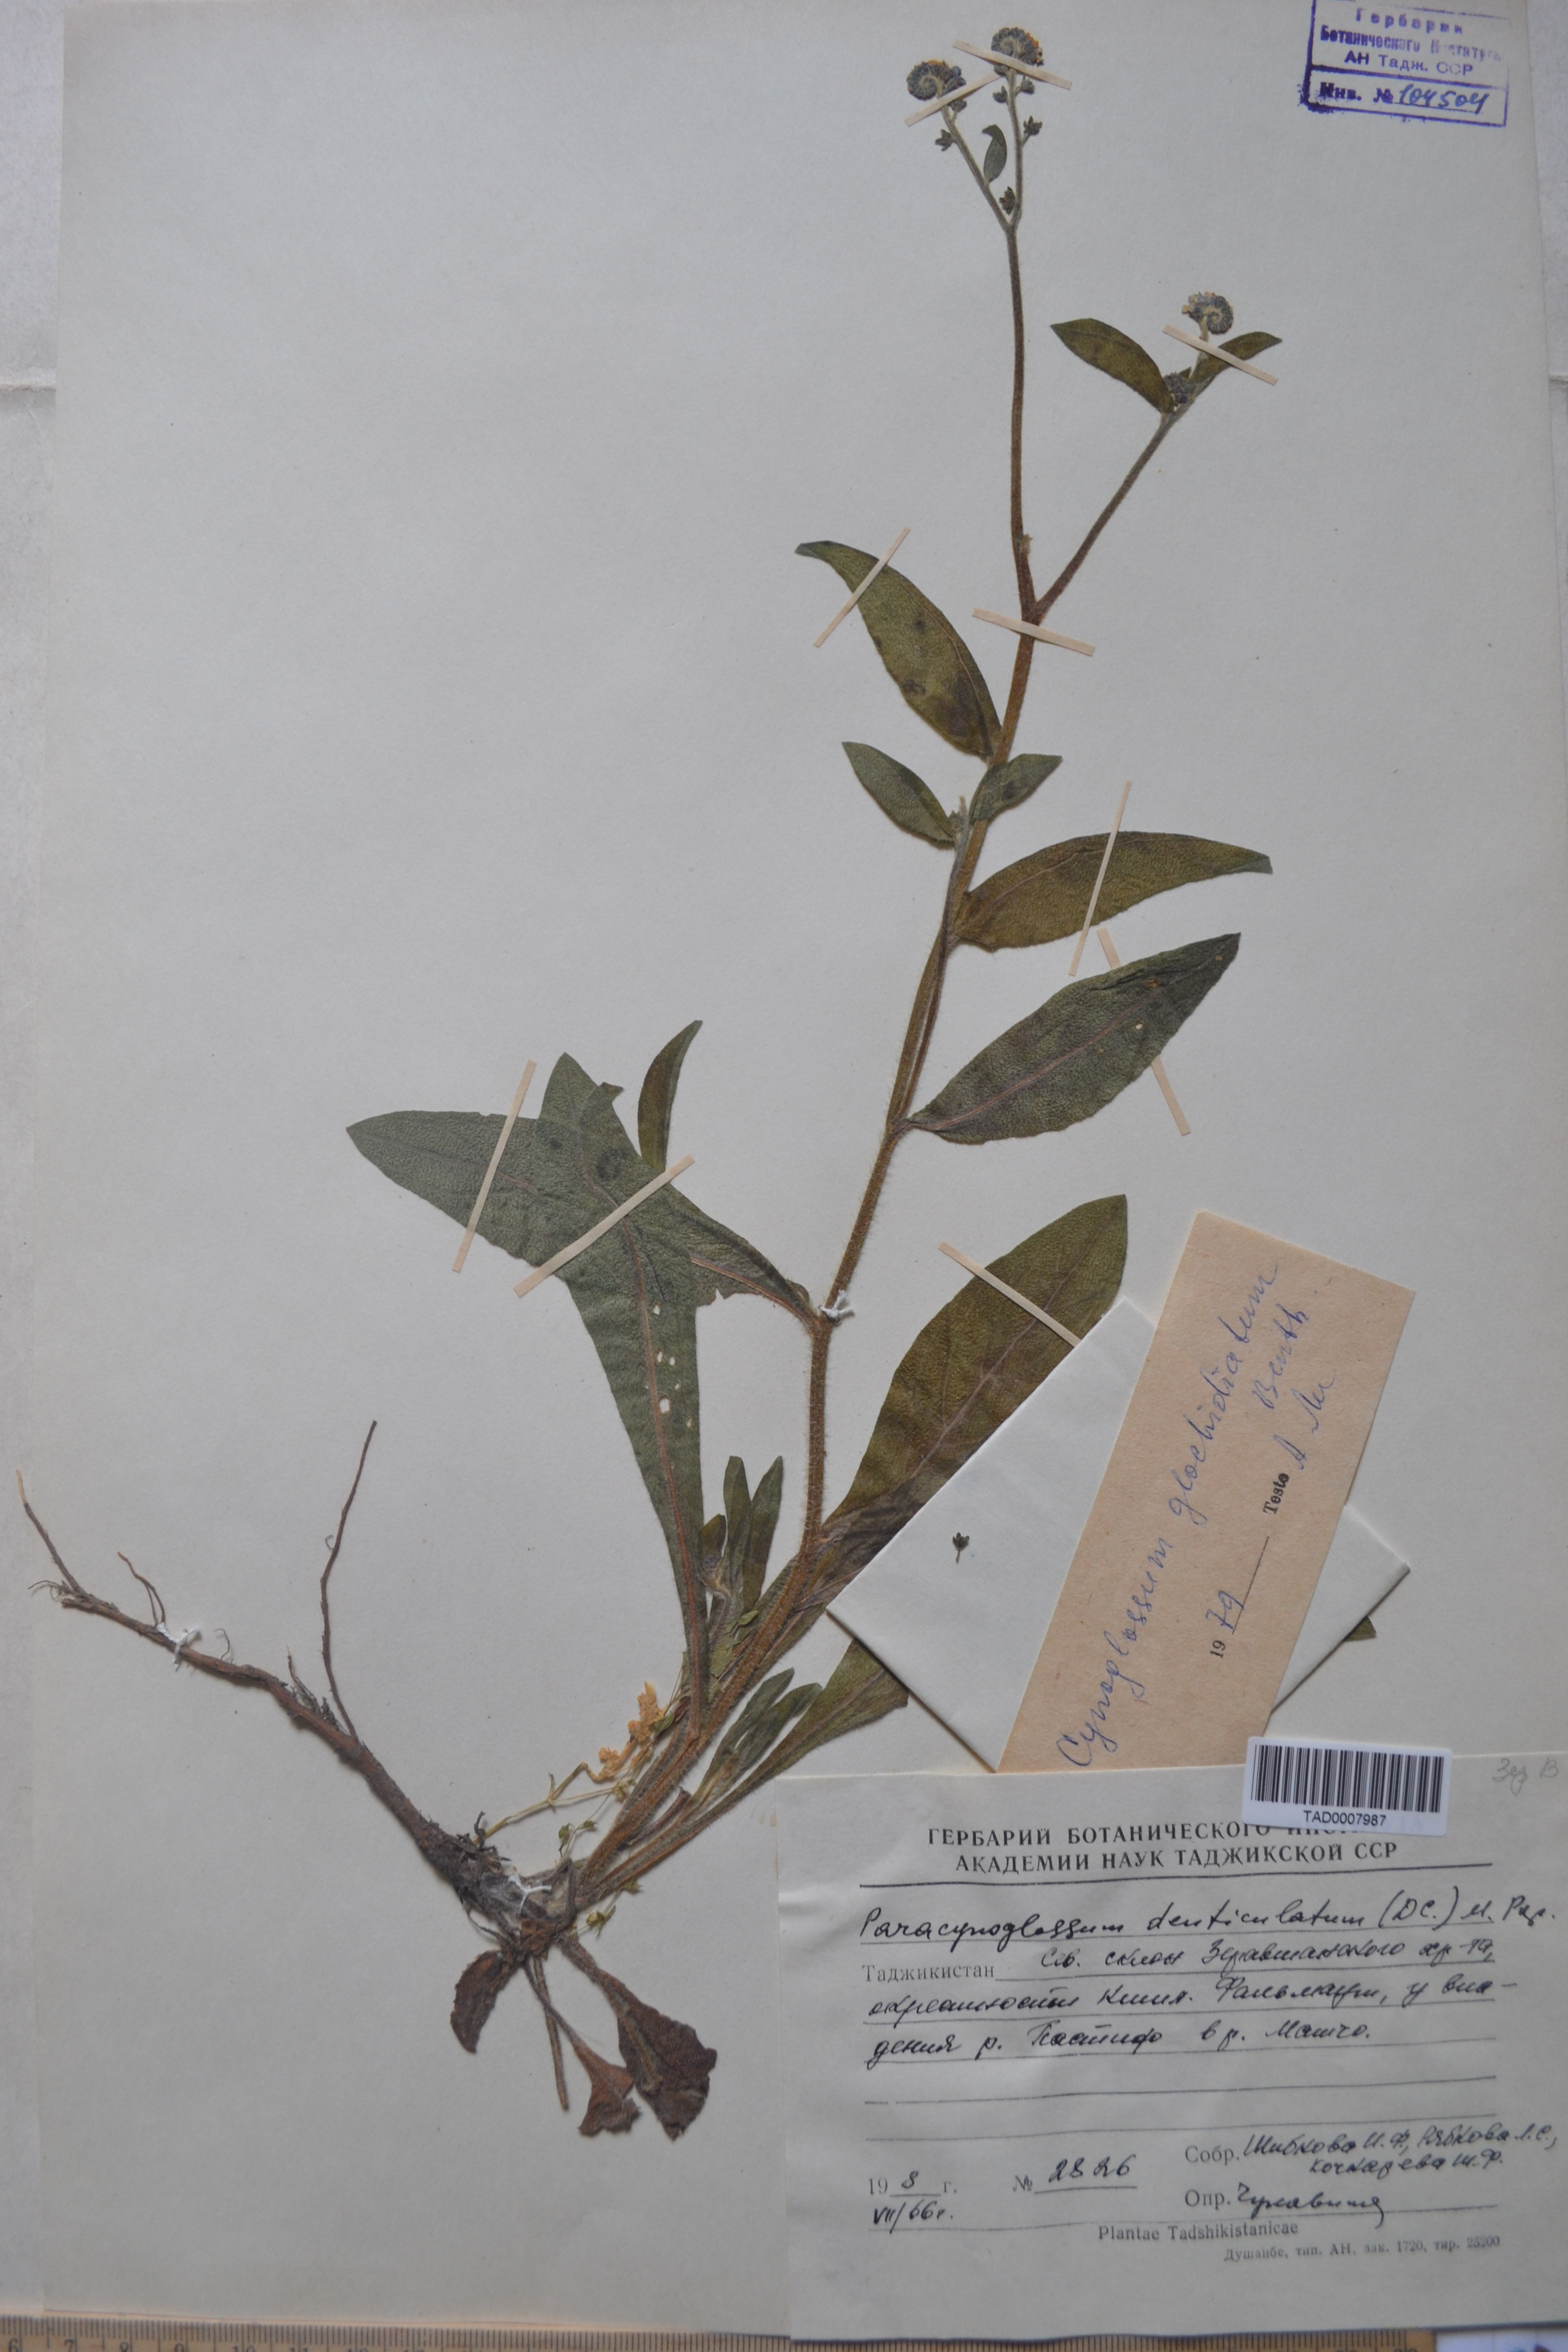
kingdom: Plantae
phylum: Tracheophyta
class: Magnoliopsida
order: Boraginales
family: Boraginaceae
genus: Paracynoglossum
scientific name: Paracynoglossum glochidiatum
